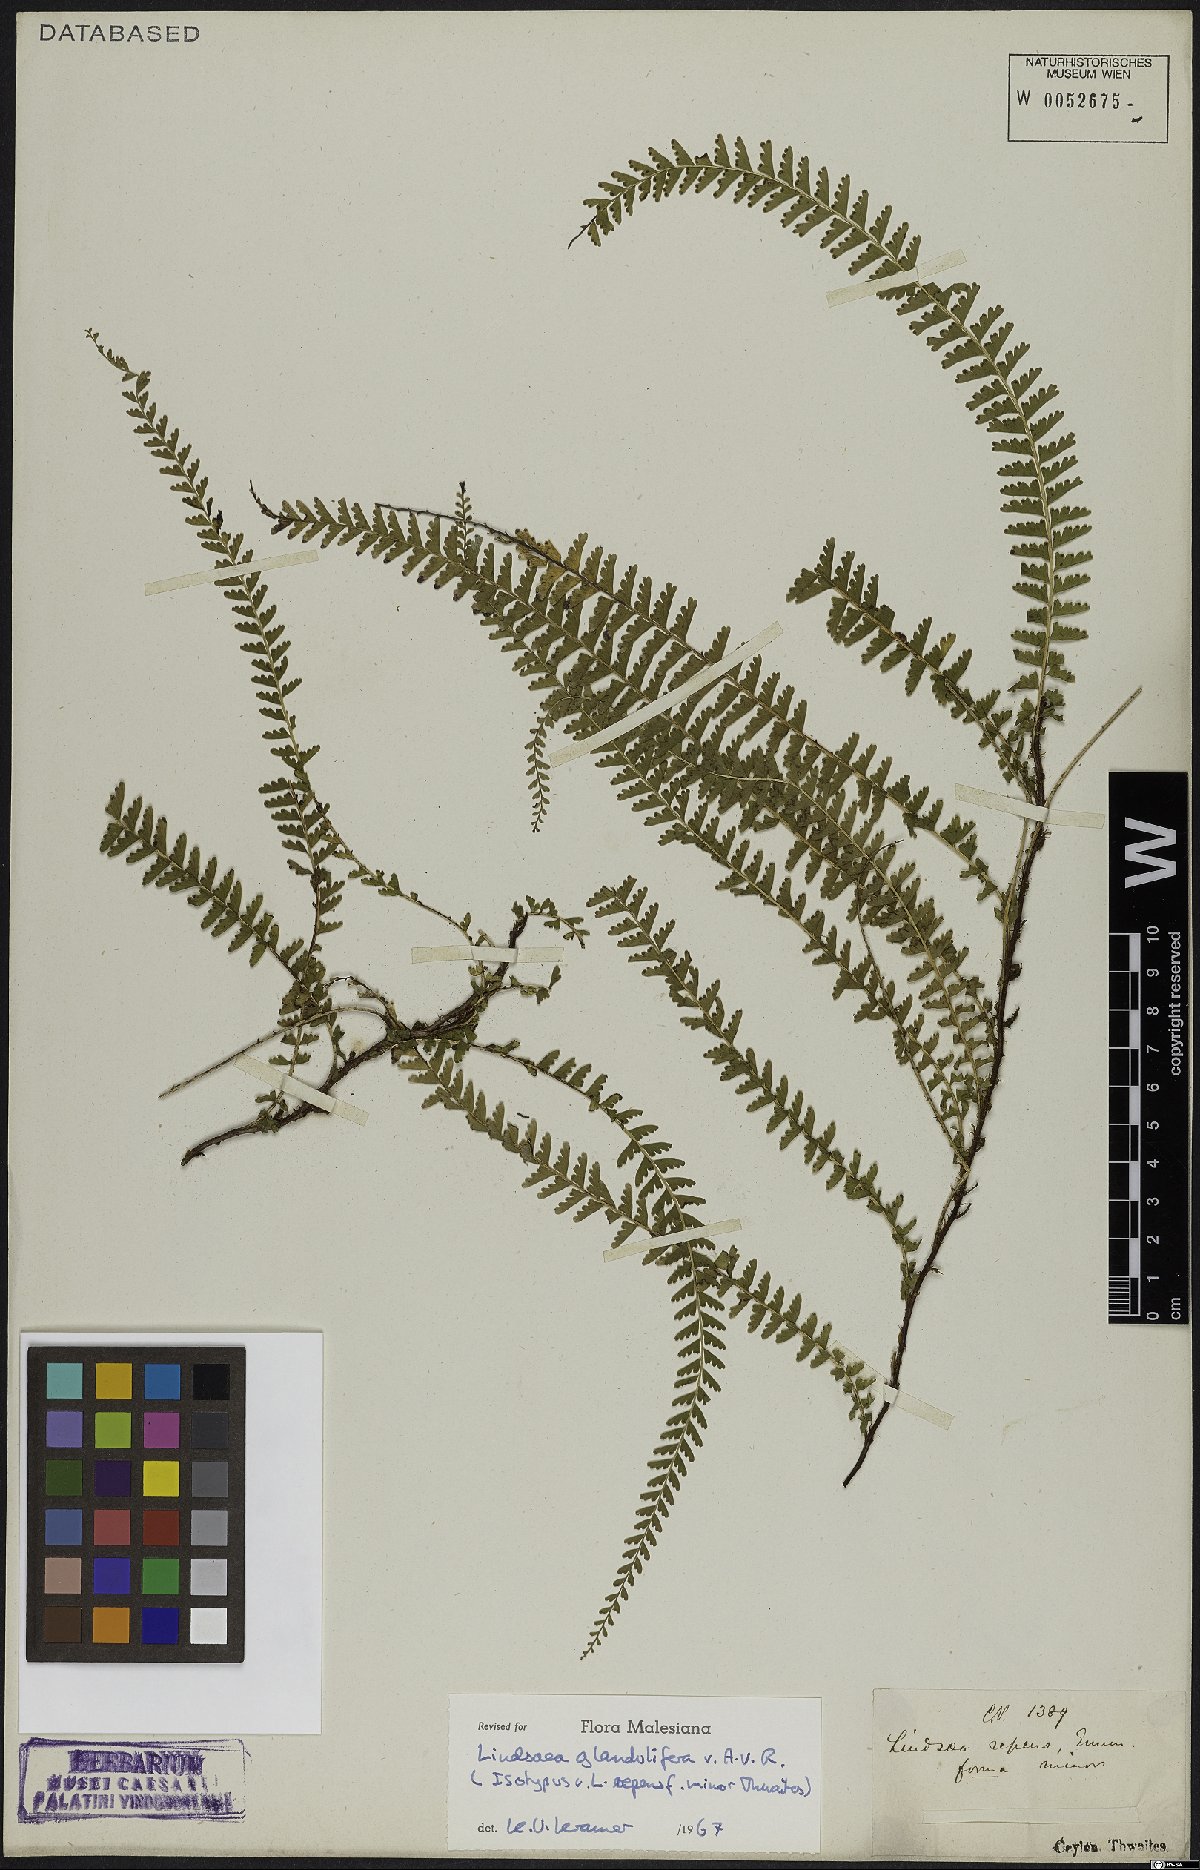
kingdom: Plantae
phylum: Tracheophyta
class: Polypodiopsida
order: Polypodiales
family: Lindsaeaceae
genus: Lindsaea
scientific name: Lindsaea glandulifera
